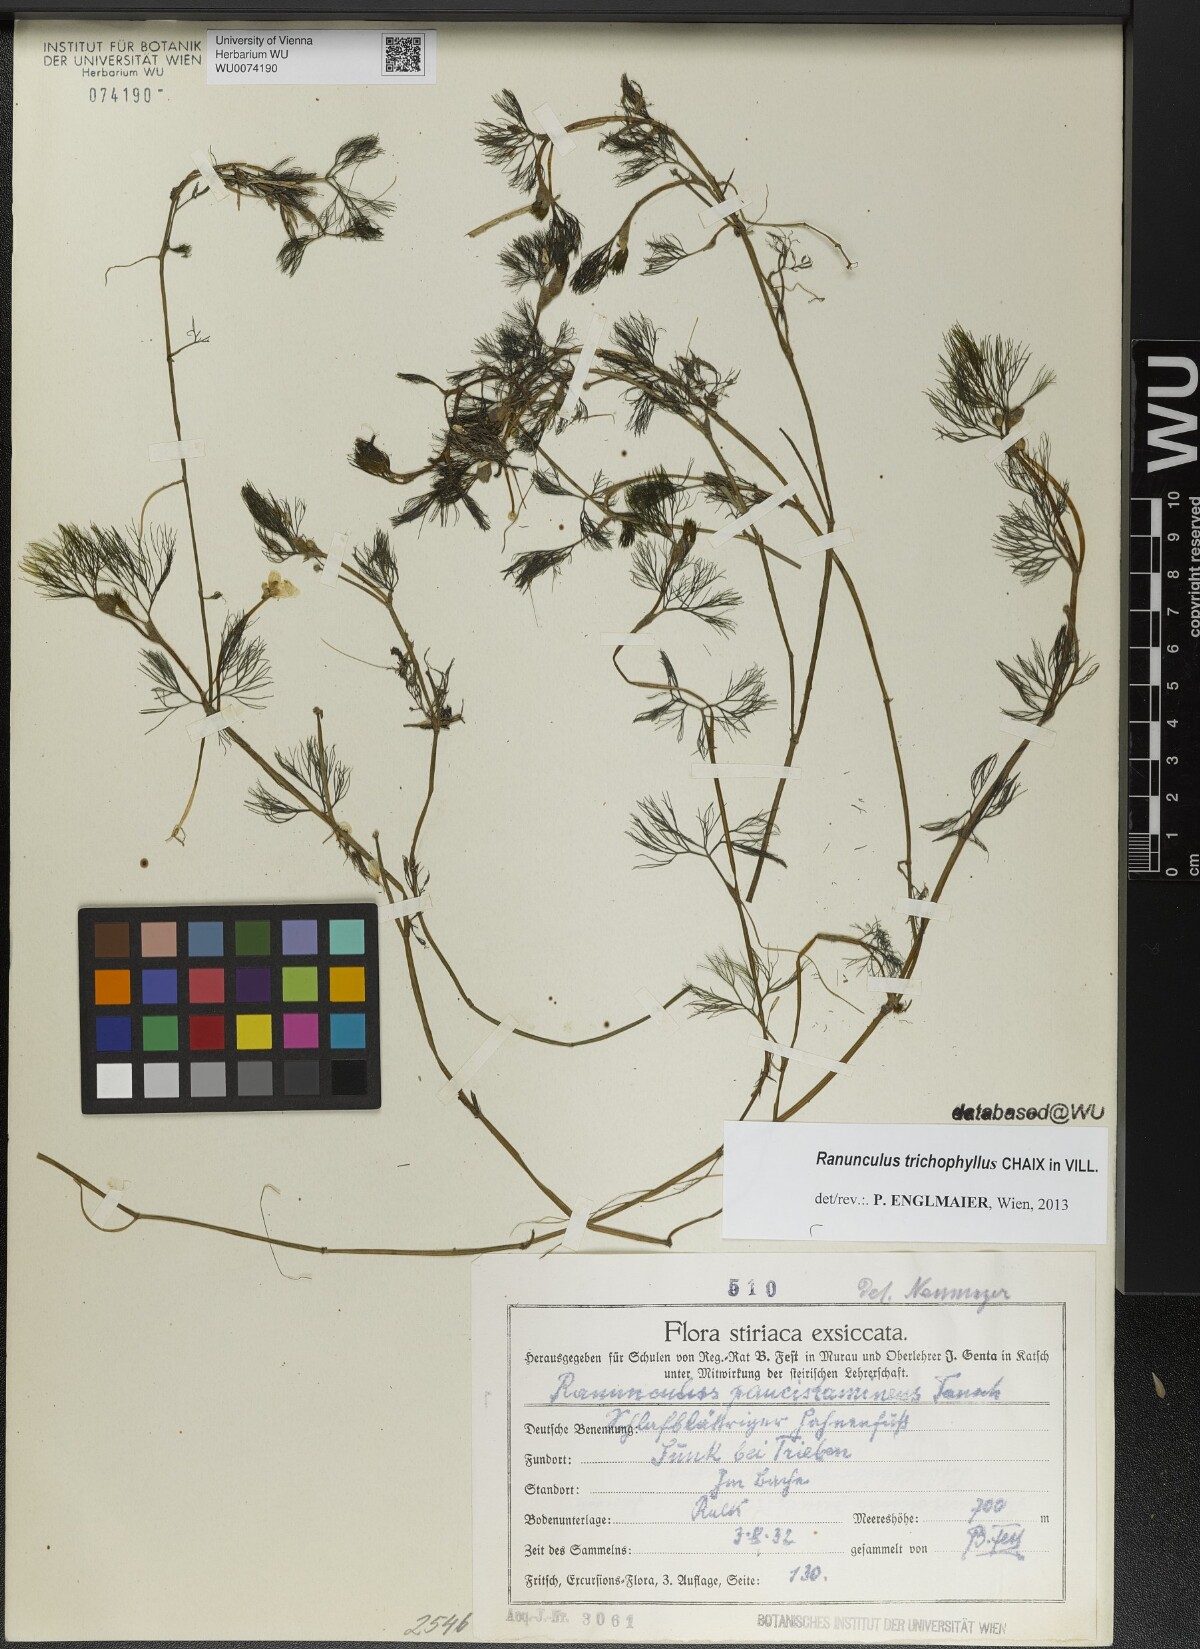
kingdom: Plantae
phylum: Tracheophyta
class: Magnoliopsida
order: Ranunculales
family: Ranunculaceae
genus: Ranunculus
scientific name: Ranunculus trichophyllus
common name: Thread-leaved water-crowfoot
